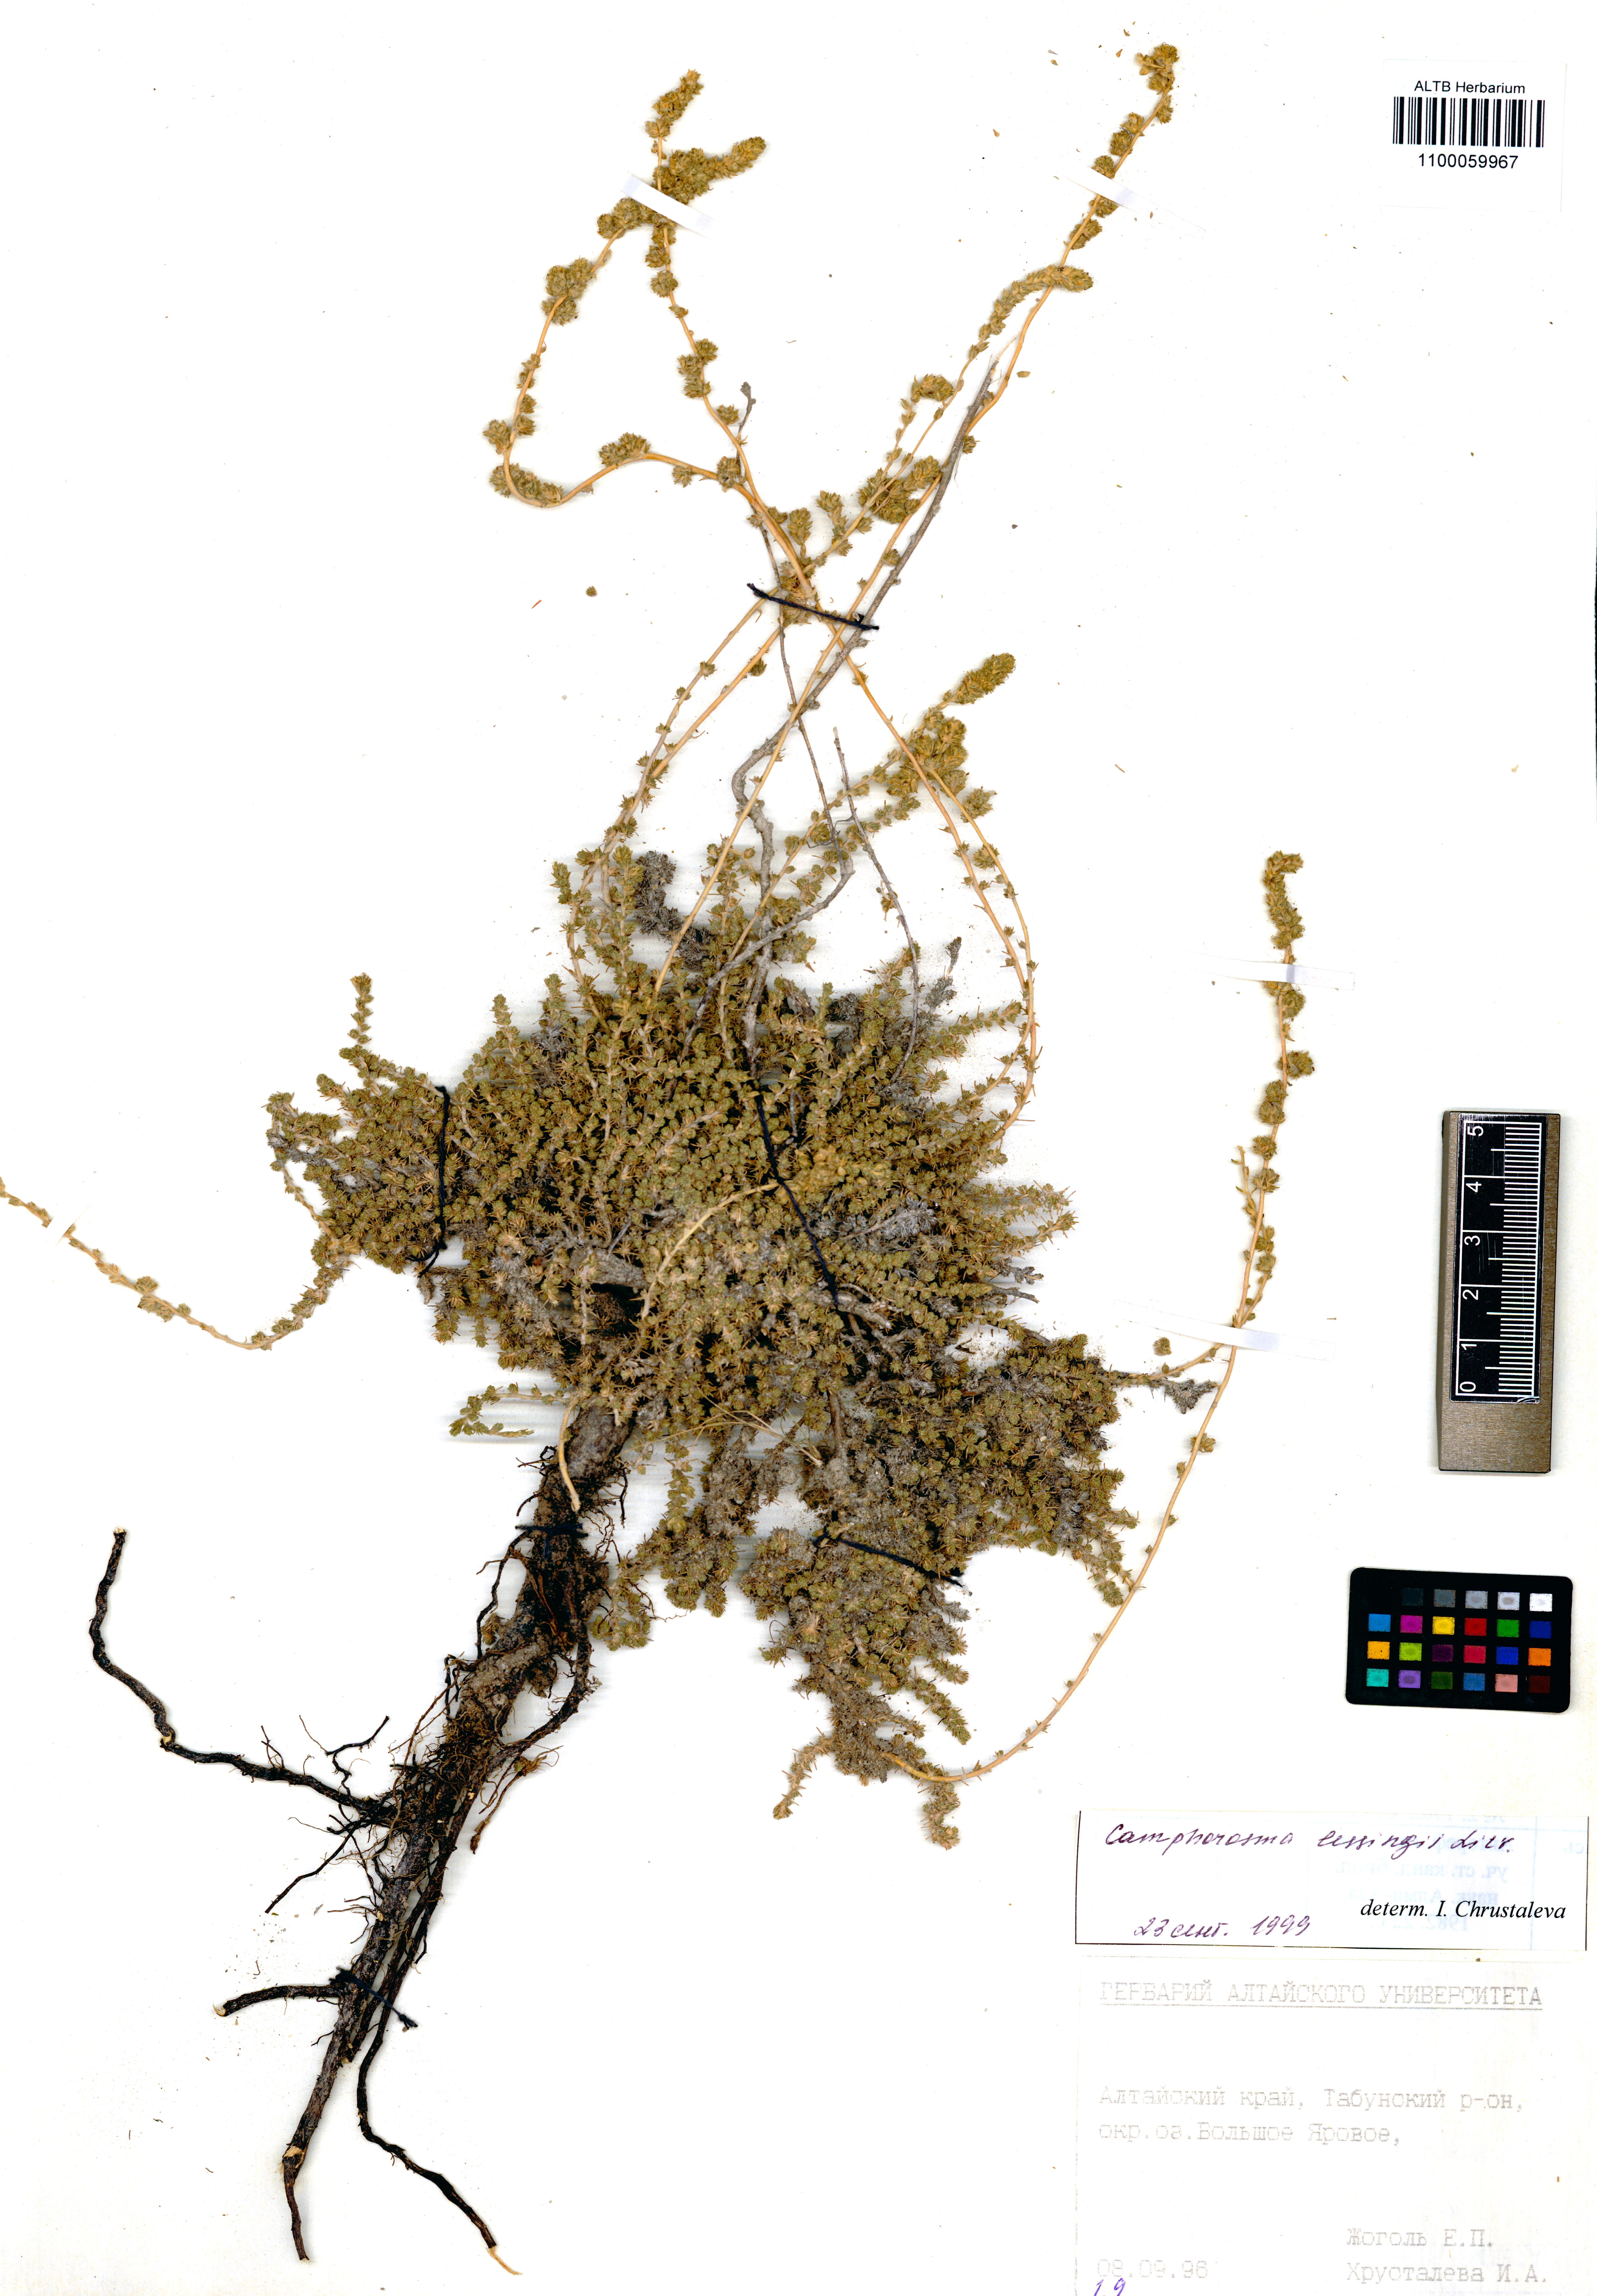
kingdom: Plantae
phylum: Tracheophyta
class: Magnoliopsida
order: Caryophyllales
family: Amaranthaceae
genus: Camphorosma
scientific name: Camphorosma monspeliaca
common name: Camphorfume
